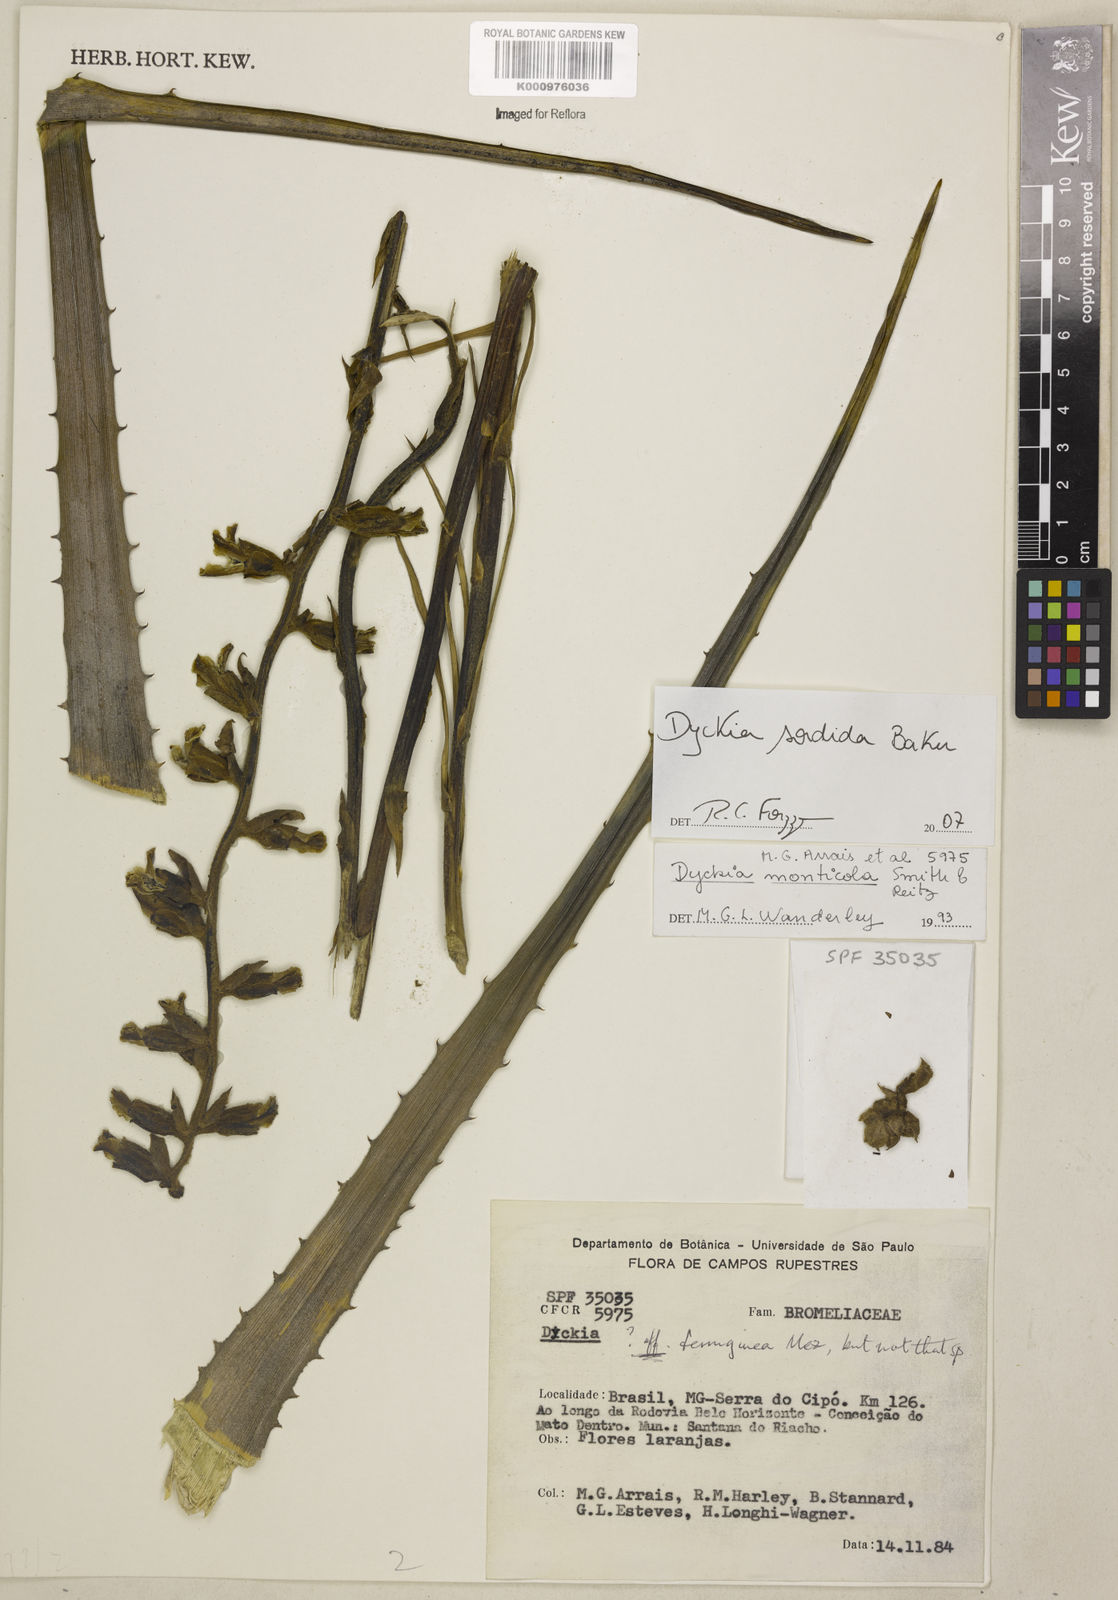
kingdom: Plantae
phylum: Tracheophyta
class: Liliopsida
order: Poales
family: Bromeliaceae
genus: Dyckia
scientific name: Dyckia sordida
